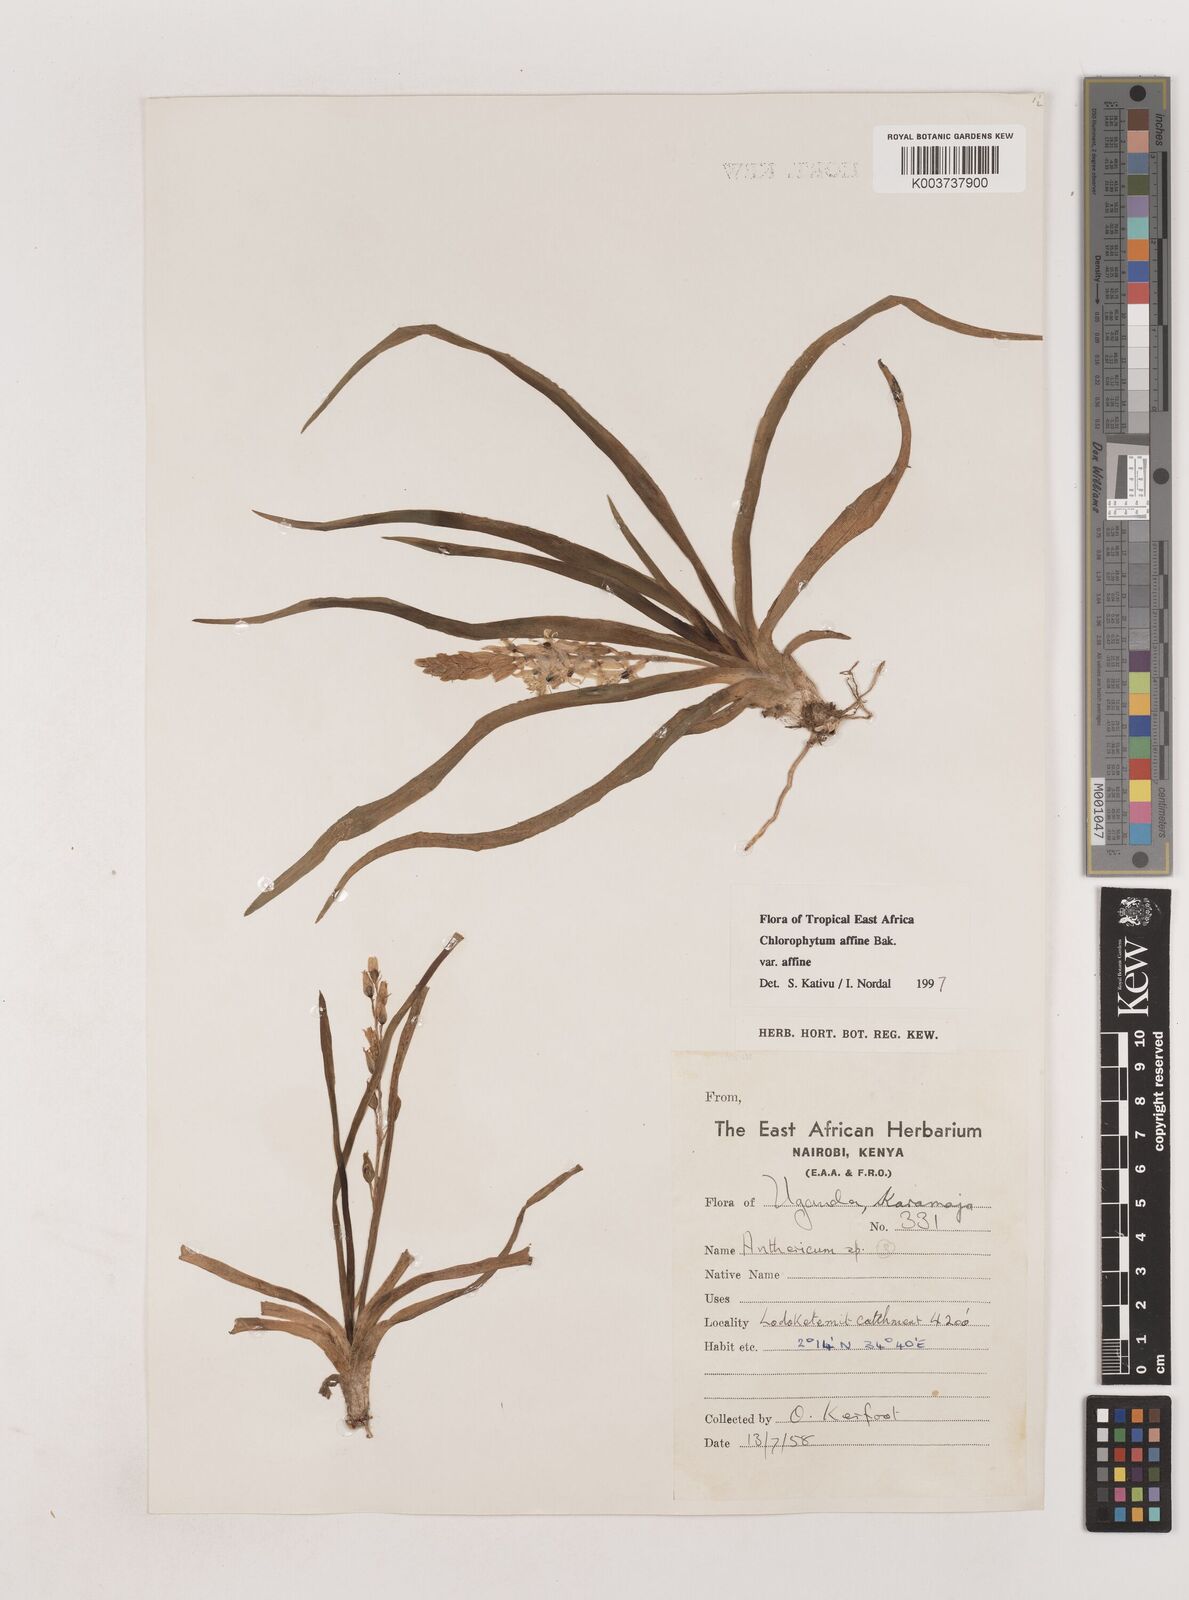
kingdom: Plantae
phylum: Tracheophyta
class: Liliopsida
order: Asparagales
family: Asparagaceae
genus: Chlorophytum
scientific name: Chlorophytum affine
